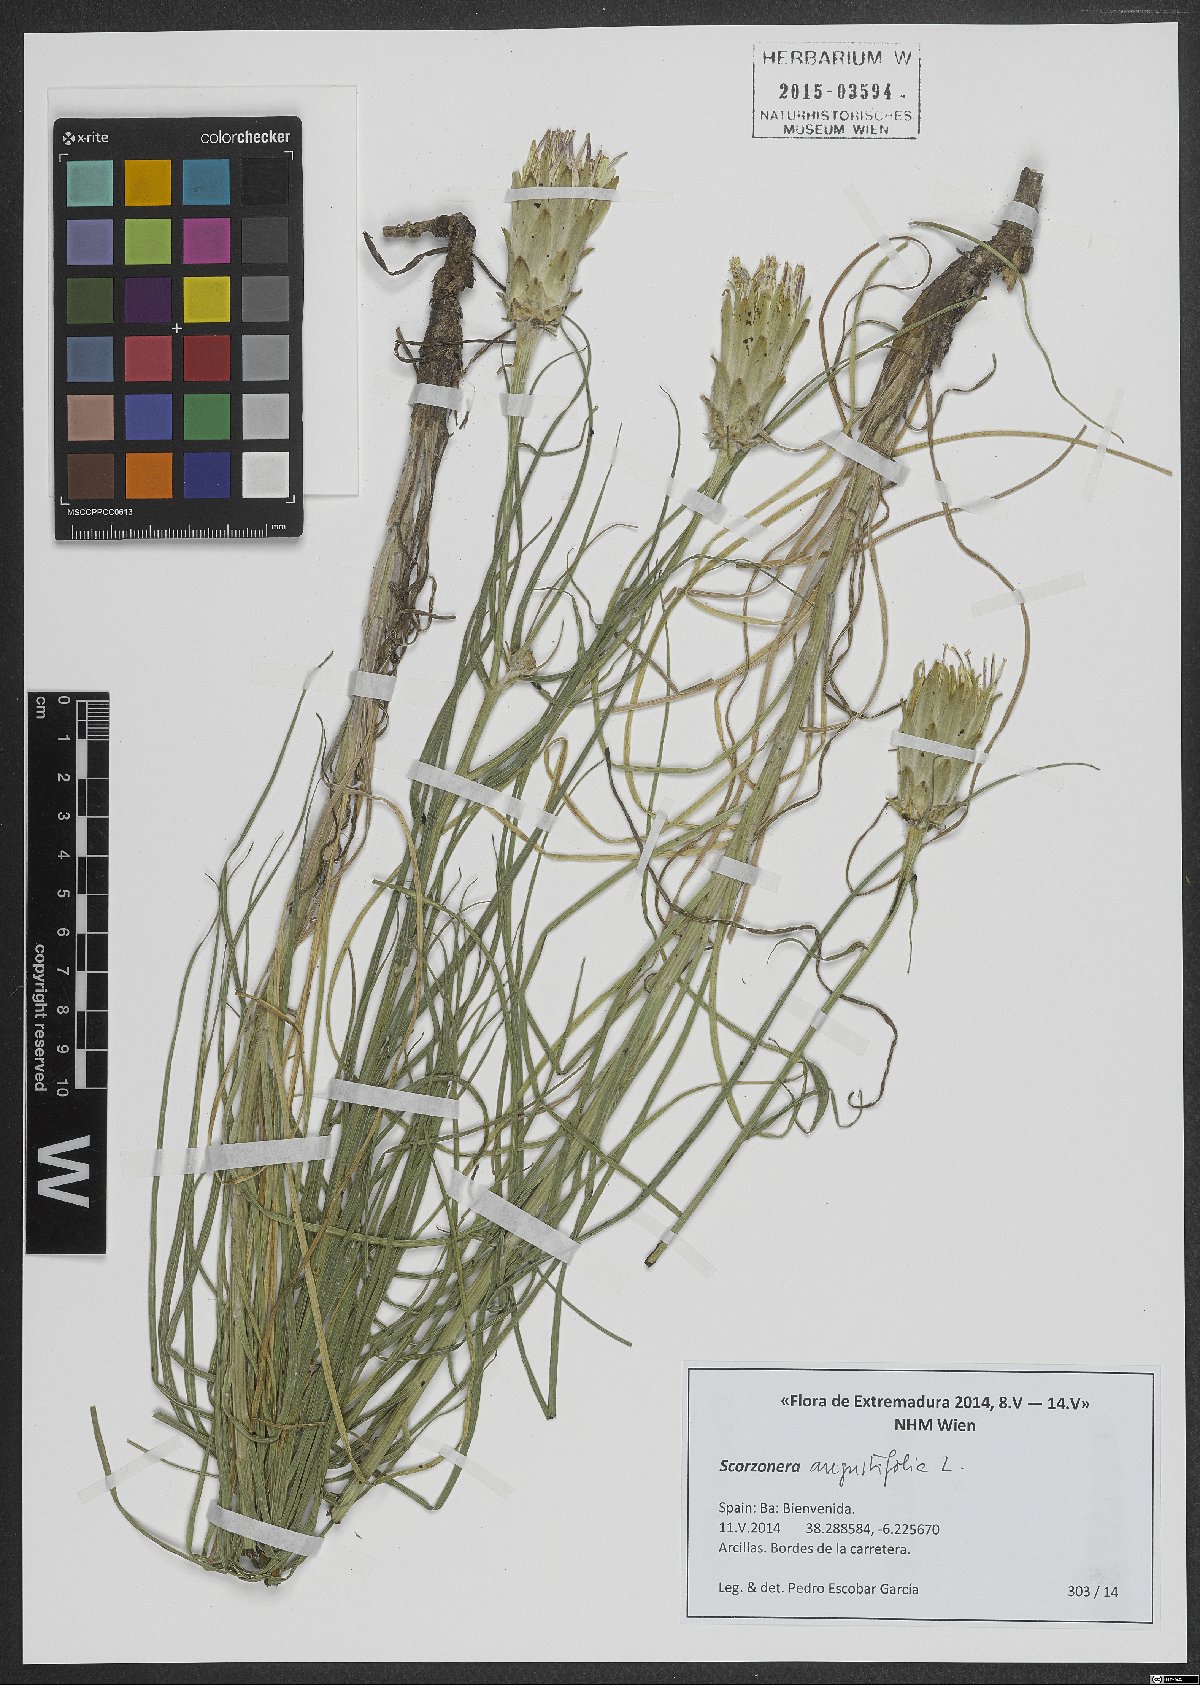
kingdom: Plantae
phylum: Tracheophyta
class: Magnoliopsida
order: Asterales
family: Asteraceae
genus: Scorzonera
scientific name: Scorzonera angustifolia
